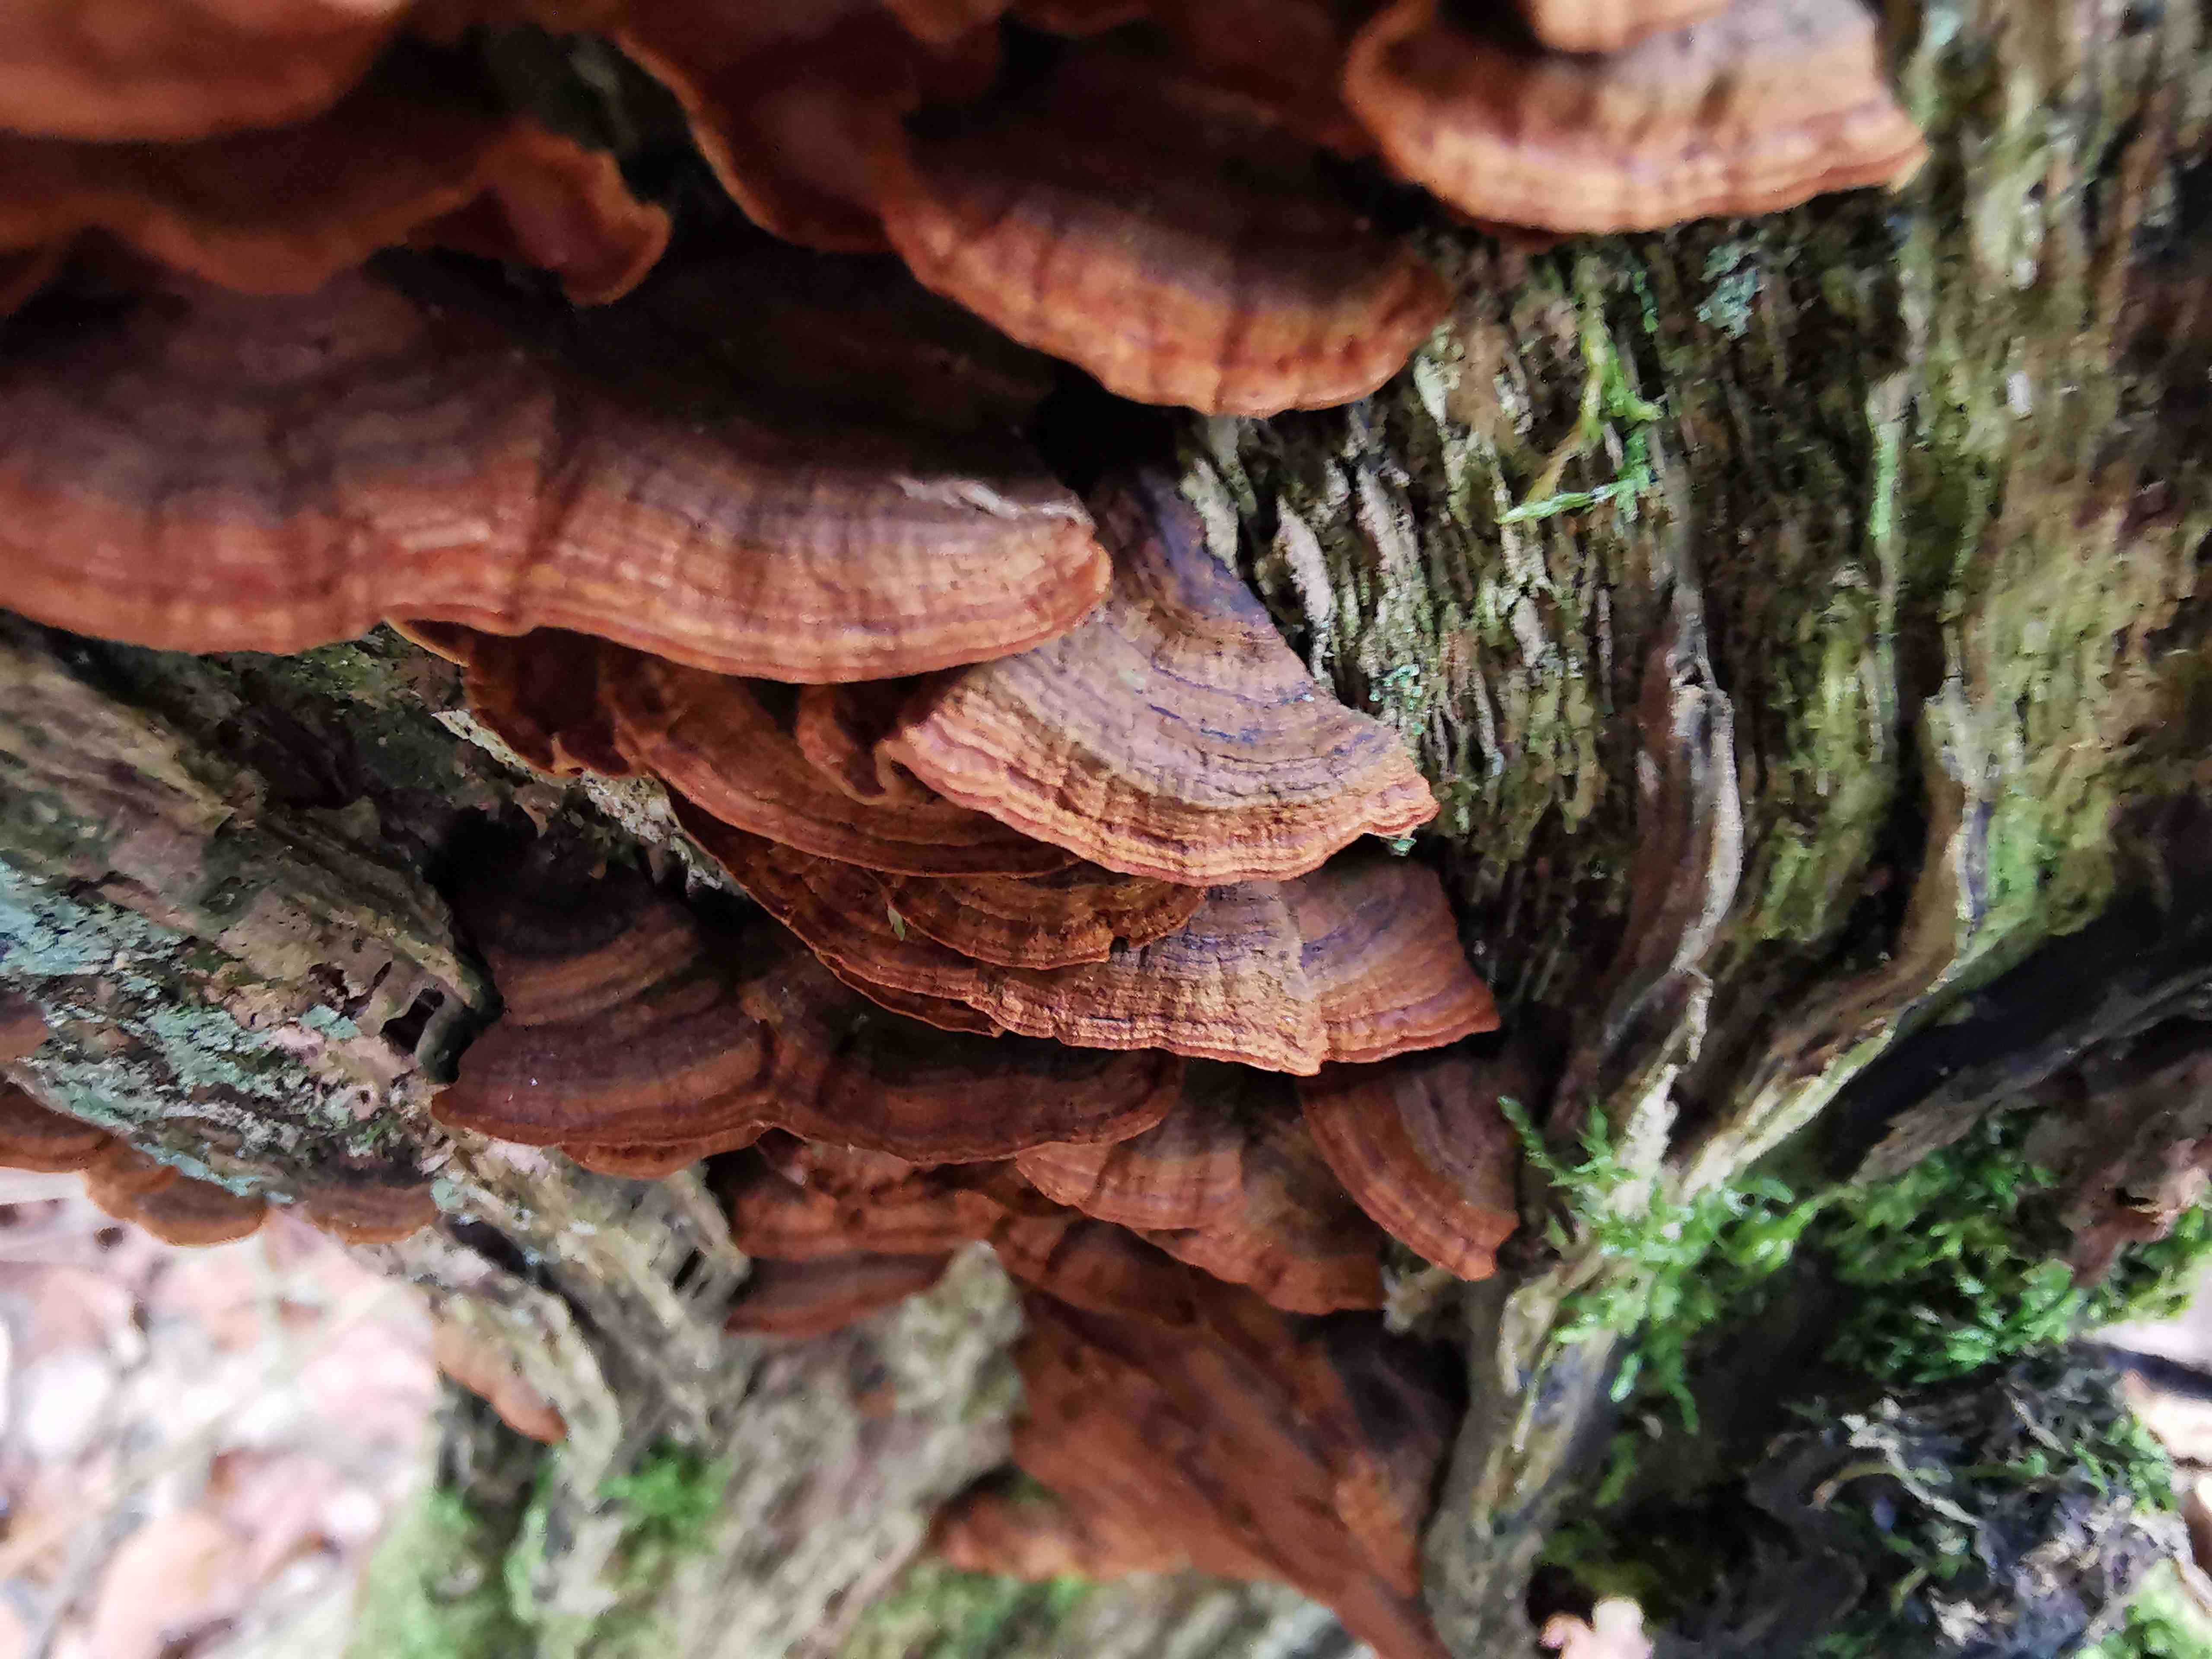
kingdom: Fungi
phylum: Basidiomycota
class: Agaricomycetes
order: Hymenochaetales
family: Hymenochaetaceae
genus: Hymenochaete
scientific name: Hymenochaete rubiginosa
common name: stiv ruslædersvamp
